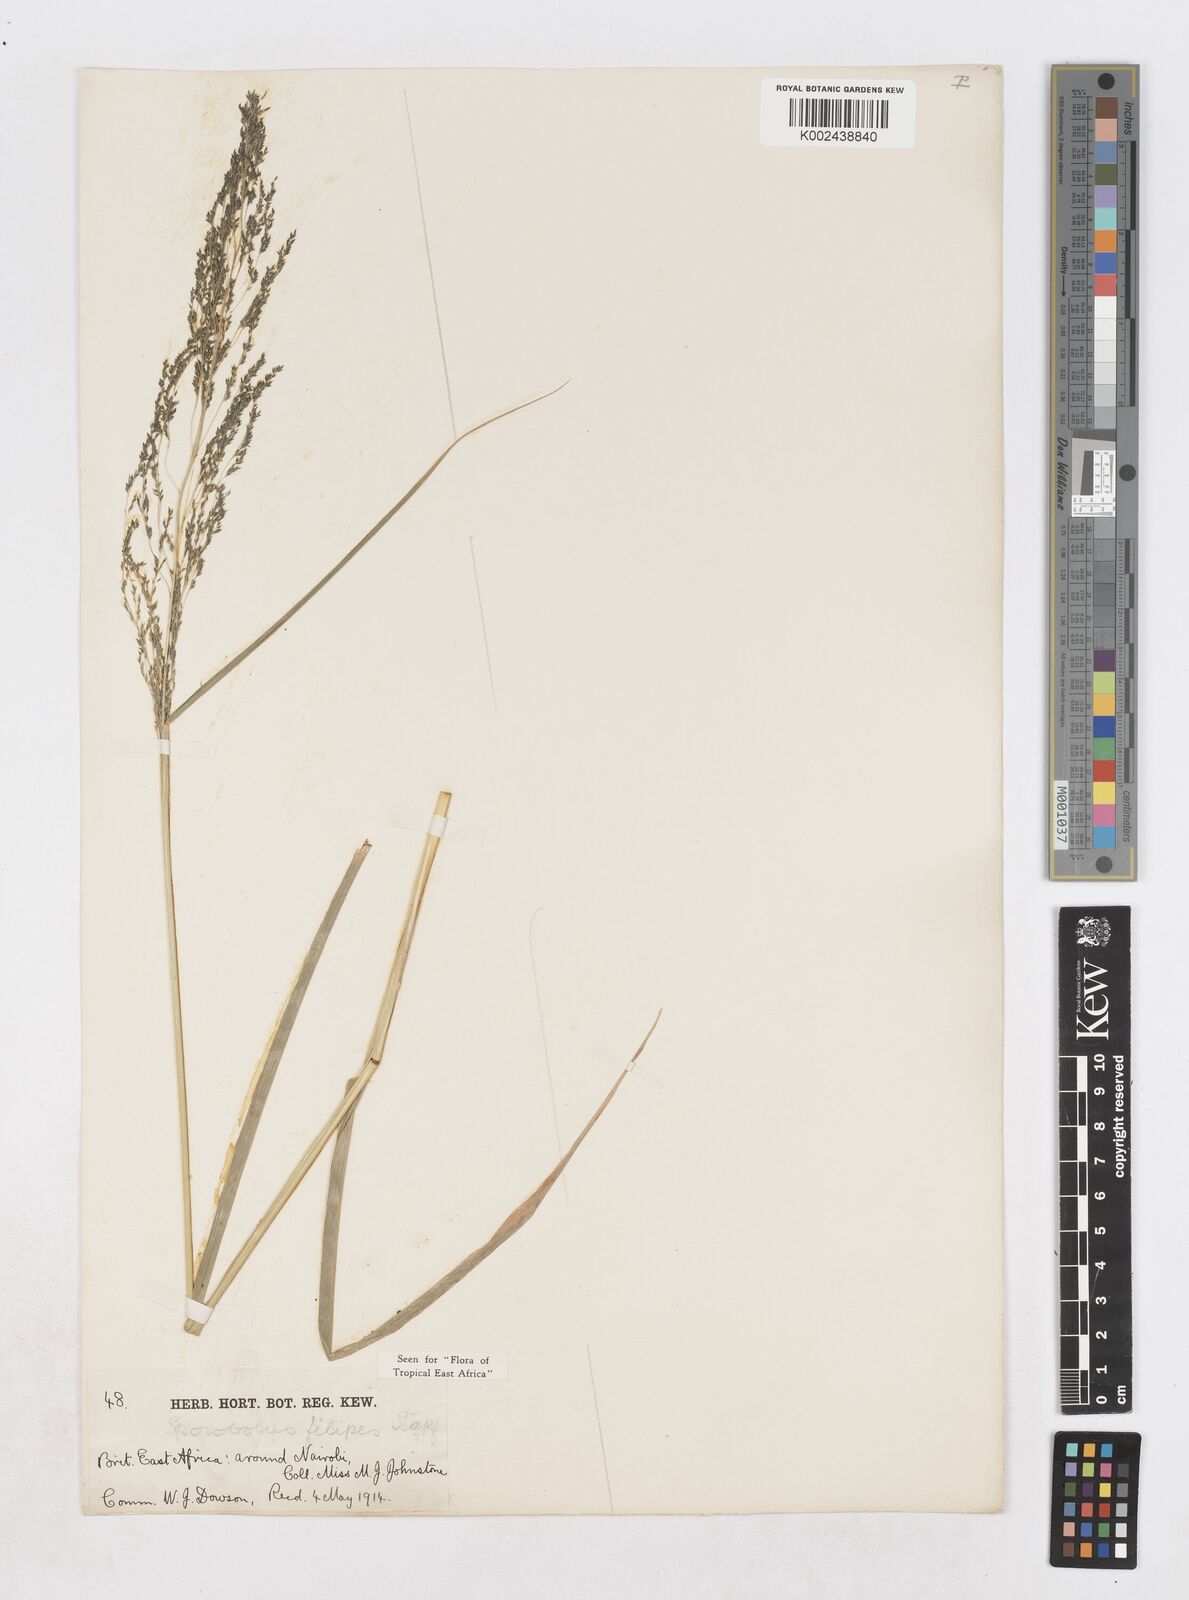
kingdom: Plantae
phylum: Tracheophyta
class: Liliopsida
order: Poales
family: Poaceae
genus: Sporobolus
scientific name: Sporobolus agrostoides
